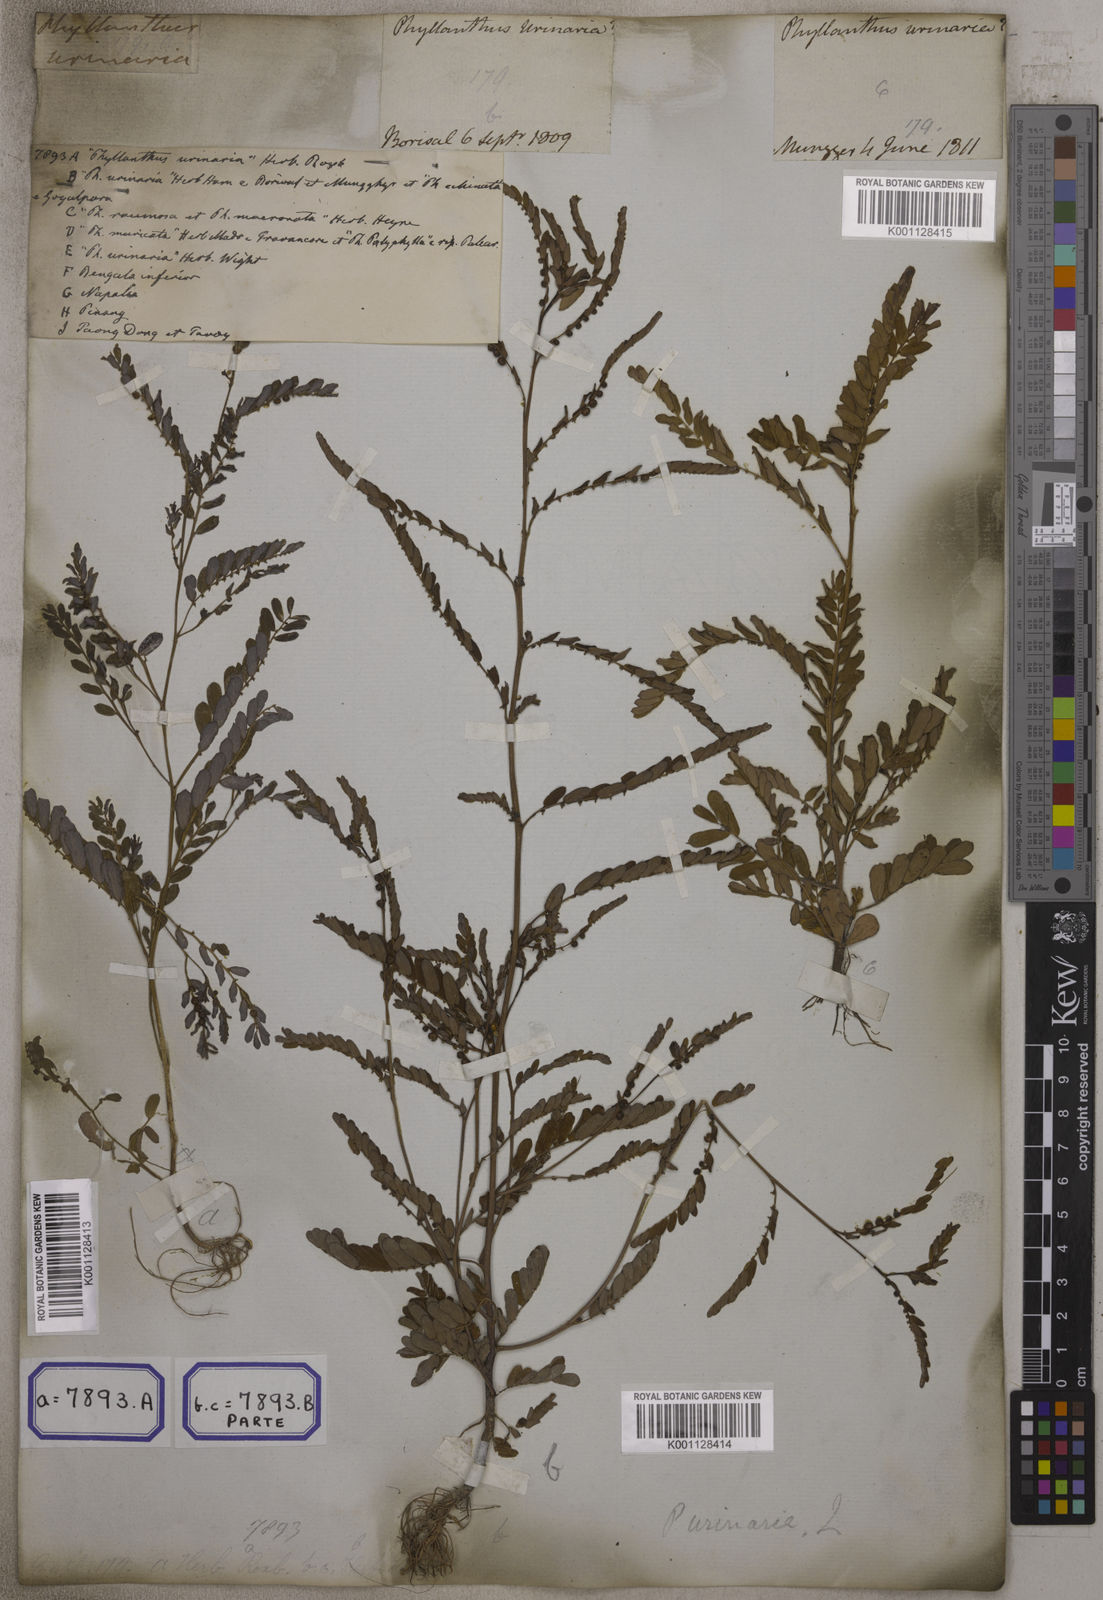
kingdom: Plantae
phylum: Tracheophyta
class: Magnoliopsida
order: Malpighiales
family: Euphorbiaceae
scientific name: Euphorbiaceae
